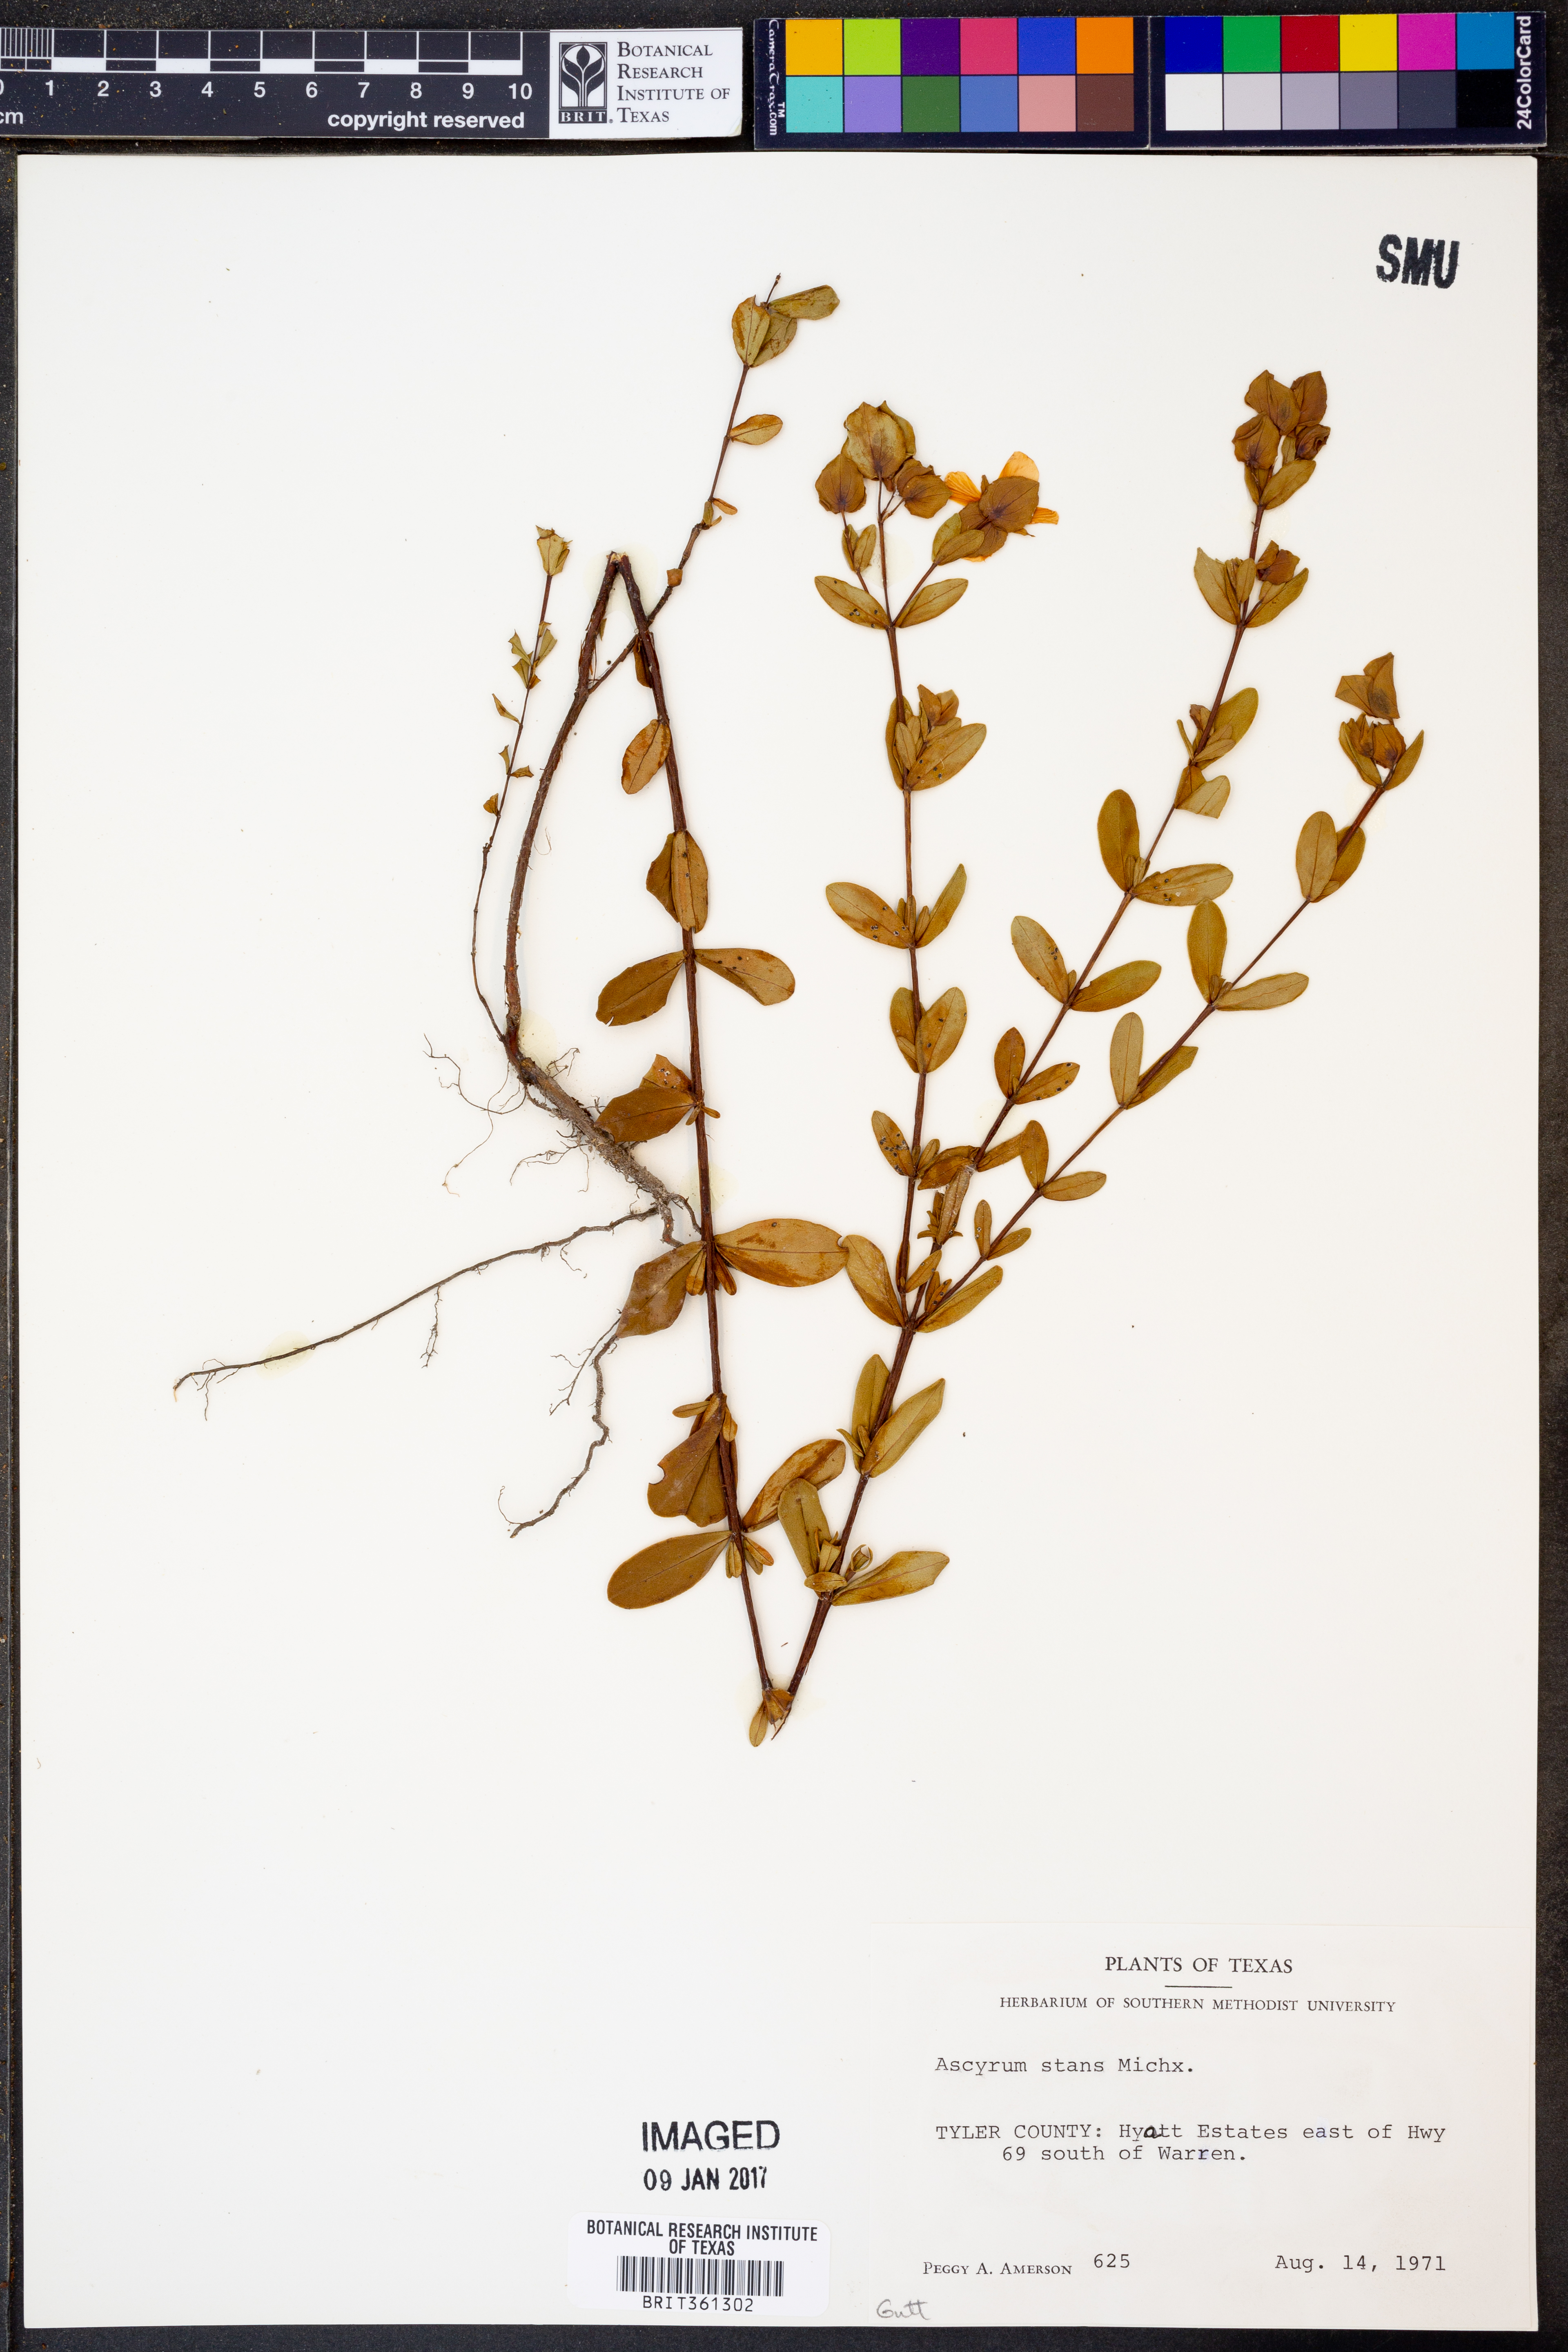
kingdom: Plantae
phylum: Tracheophyta
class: Magnoliopsida
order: Malpighiales
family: Hypericaceae
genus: Hypericum
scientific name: Hypericum crux-andreae
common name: St.-peter's-wort
